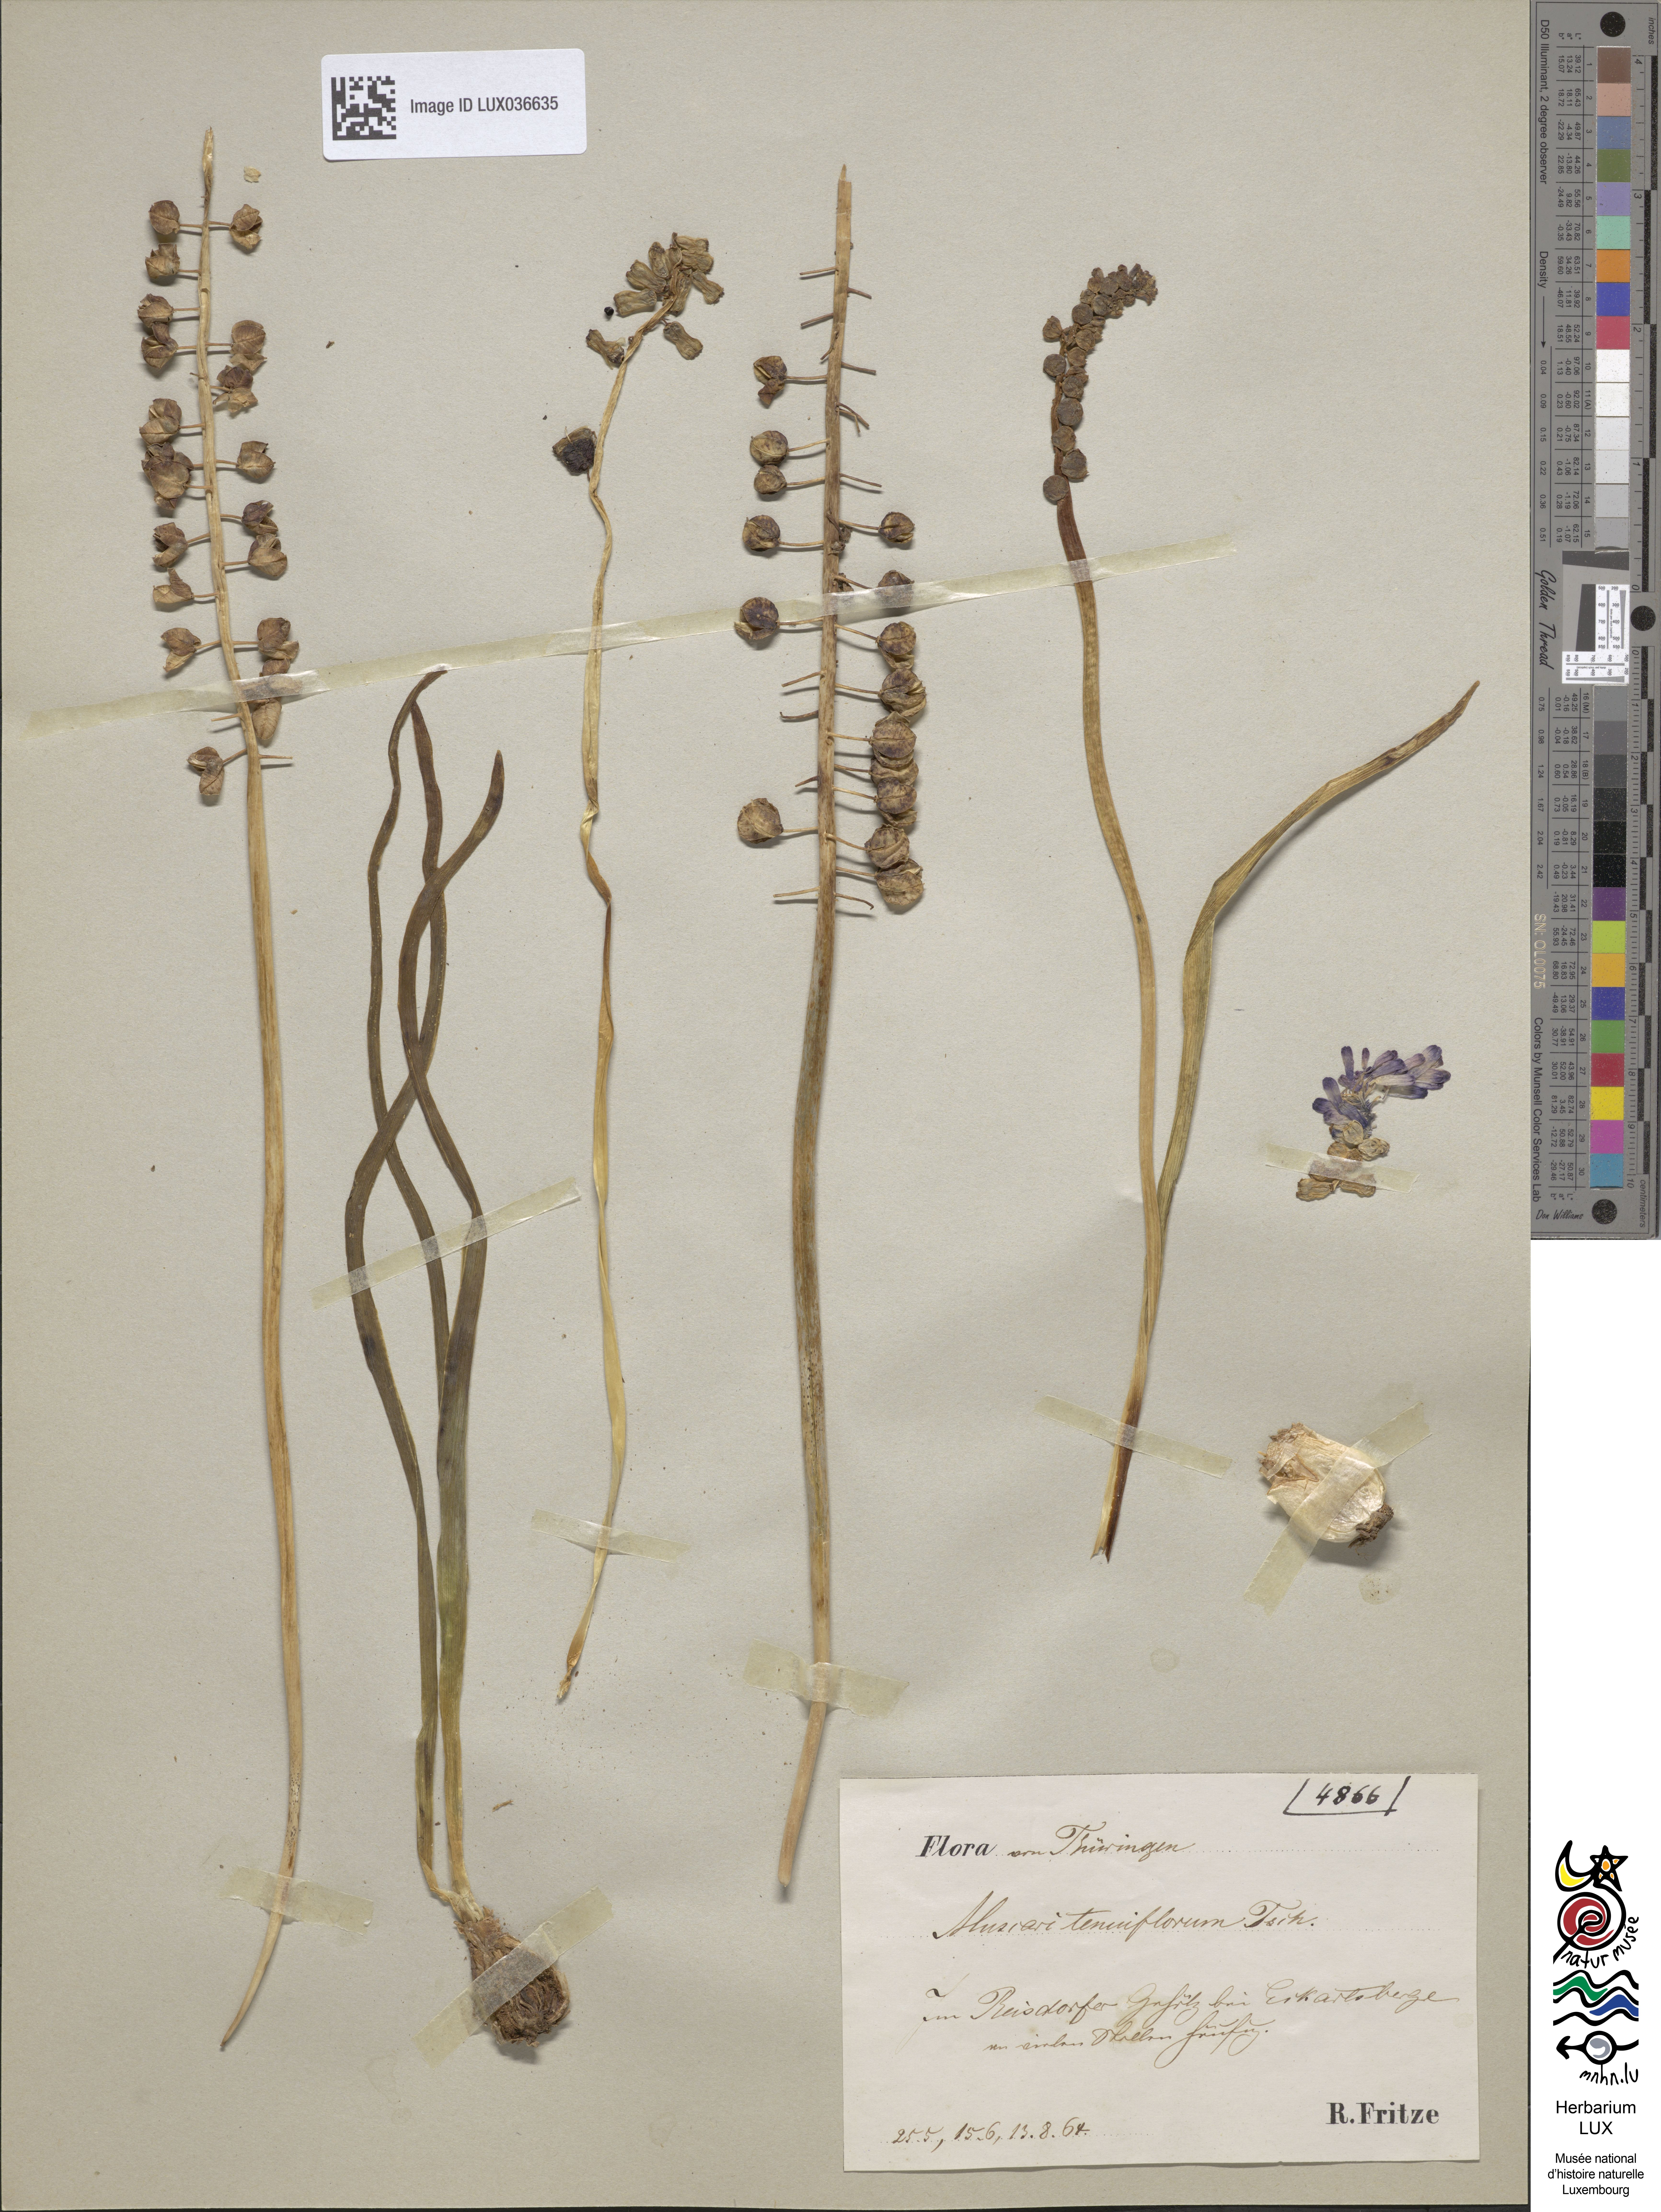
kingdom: Plantae
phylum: Tracheophyta
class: Liliopsida
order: Asparagales
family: Asparagaceae
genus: Muscari
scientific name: Muscari tenuiflorum
